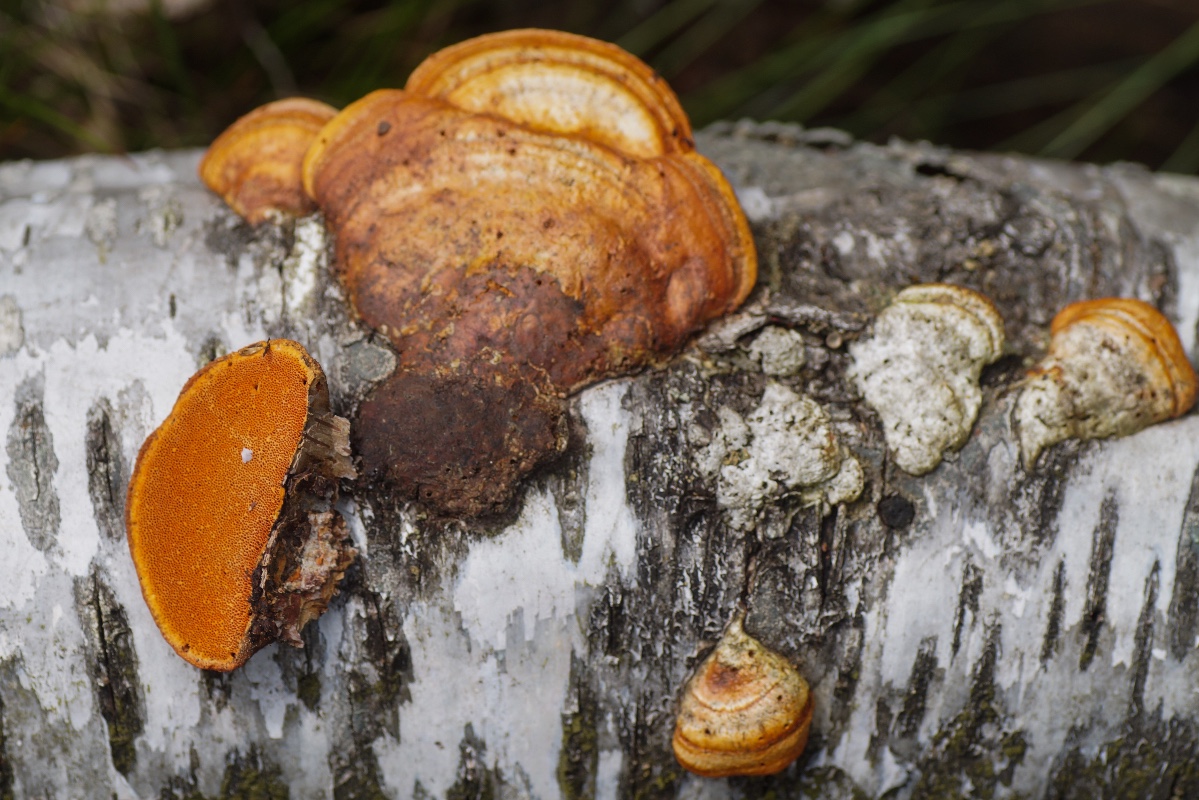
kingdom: Fungi
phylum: Basidiomycota
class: Agaricomycetes
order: Polyporales
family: Polyporaceae
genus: Trametes
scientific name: Trametes cinnabarina
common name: cinnoberporesvamp
